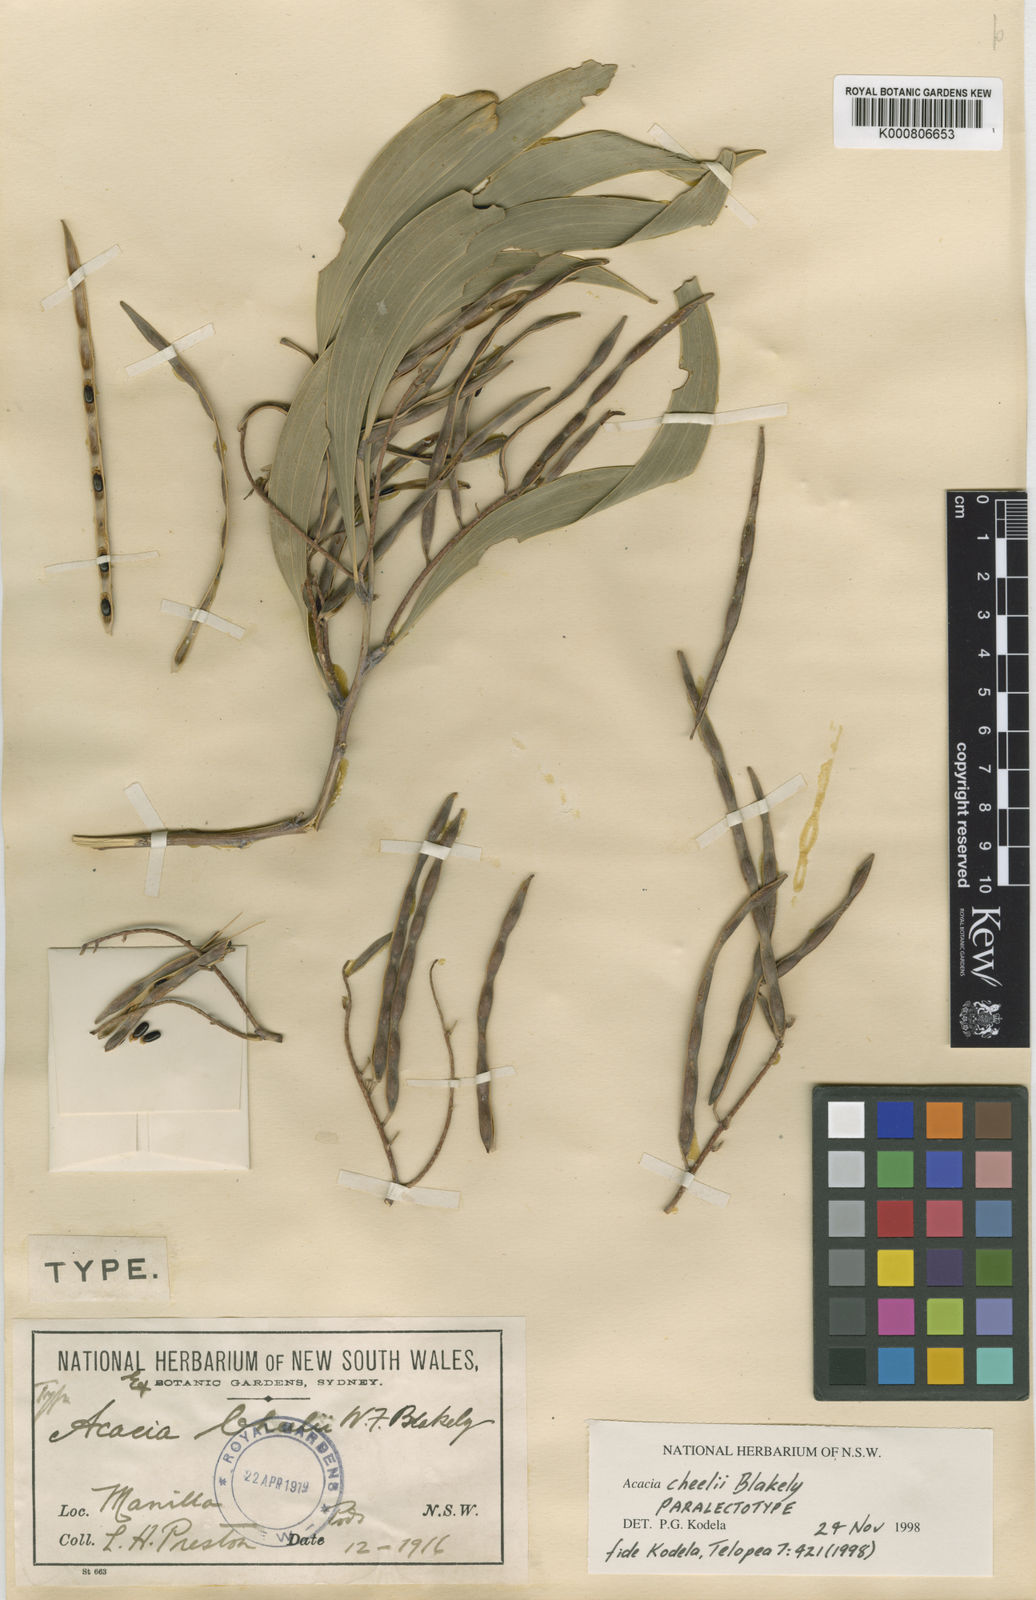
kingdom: Plantae
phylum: Tracheophyta
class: Magnoliopsida
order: Fabales
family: Fabaceae
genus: Acacia
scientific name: Acacia cheelii
